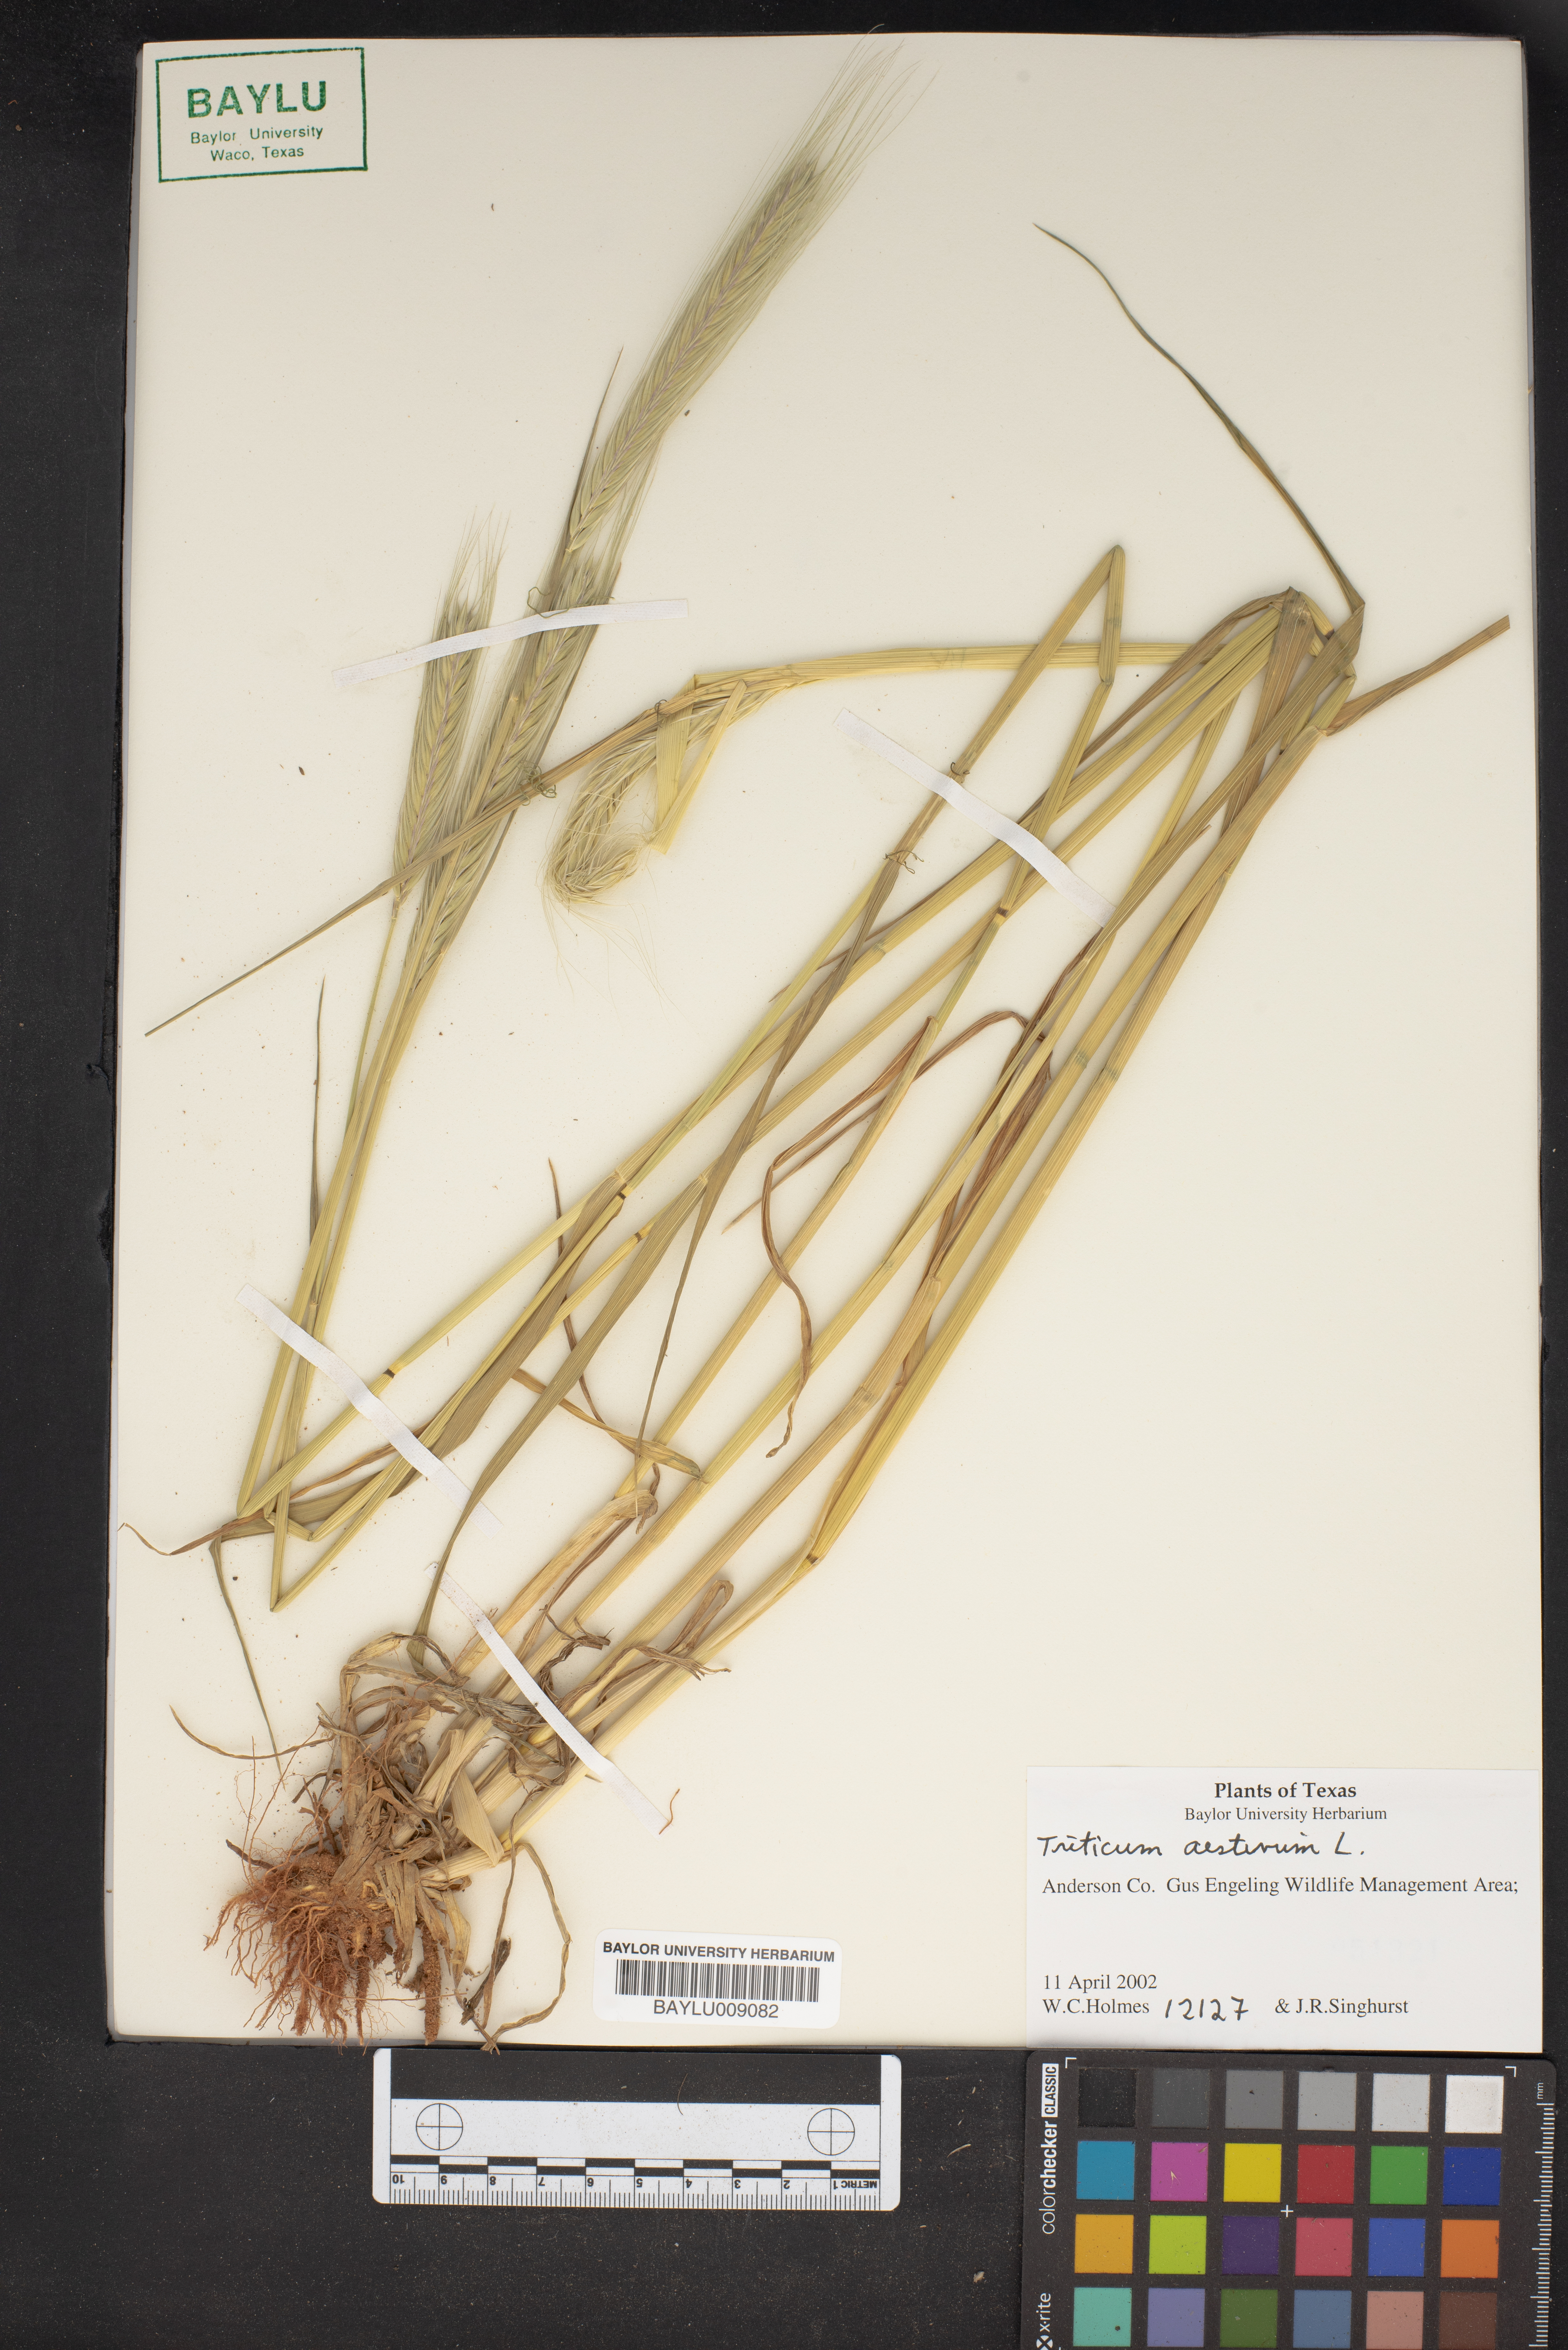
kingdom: Plantae
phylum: Tracheophyta
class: Liliopsida
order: Poales
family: Poaceae
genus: Triticum
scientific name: Triticum aestivum
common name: Common wheat
